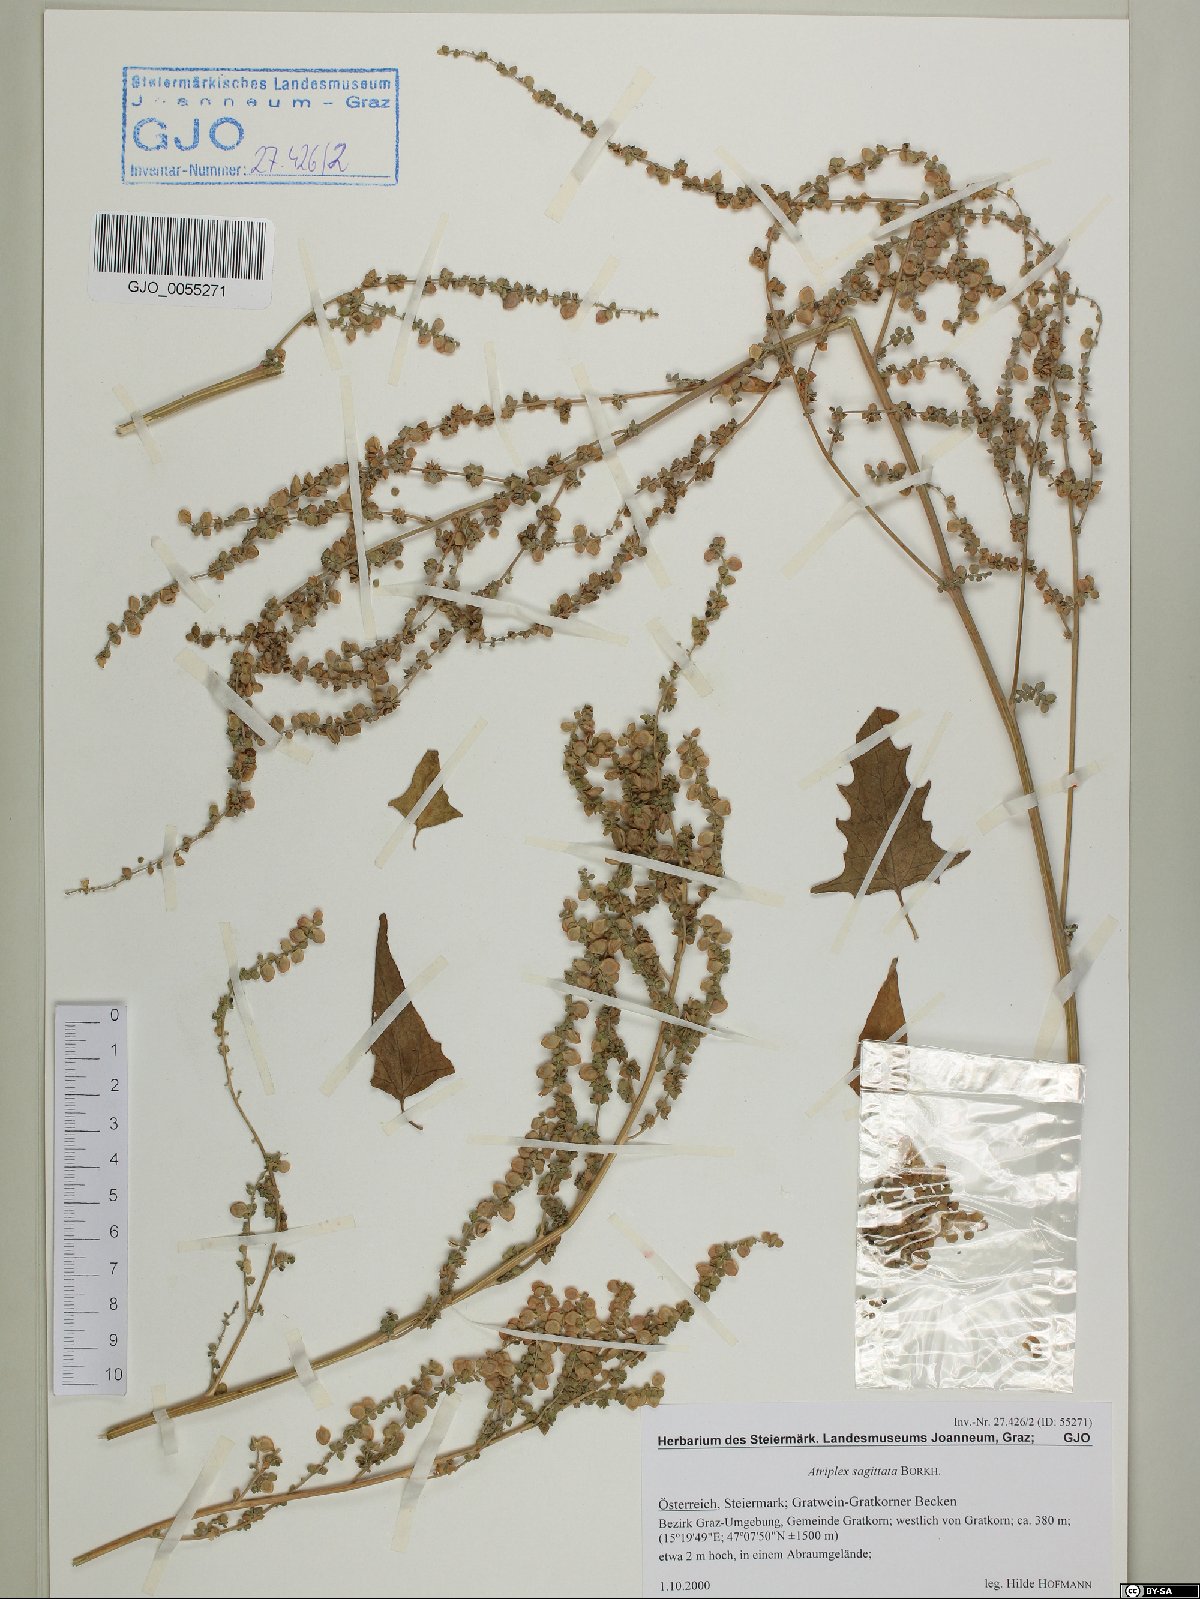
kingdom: Plantae
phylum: Tracheophyta
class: Magnoliopsida
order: Caryophyllales
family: Amaranthaceae
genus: Atriplex
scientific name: Atriplex sagittata
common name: Purple orache
